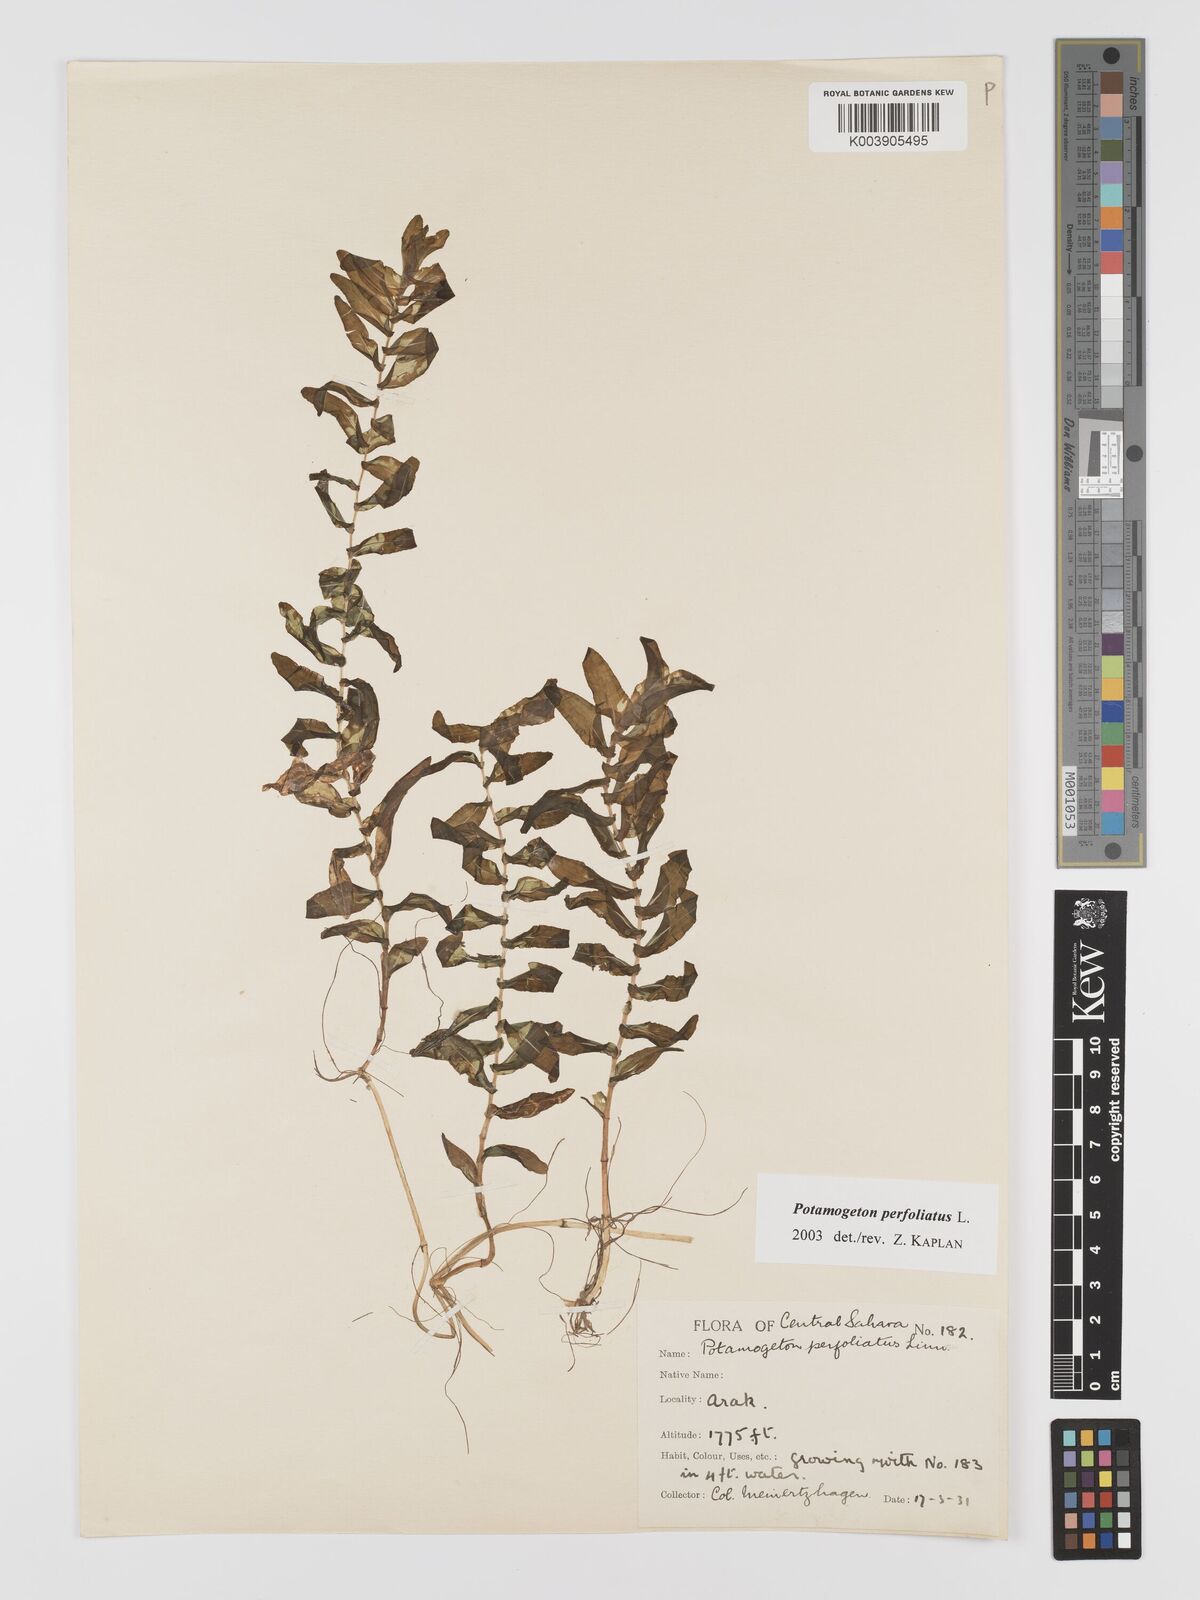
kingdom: Plantae
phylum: Tracheophyta
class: Liliopsida
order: Alismatales
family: Potamogetonaceae
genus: Potamogeton
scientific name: Potamogeton perfoliatus
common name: Perfoliate pondweed
